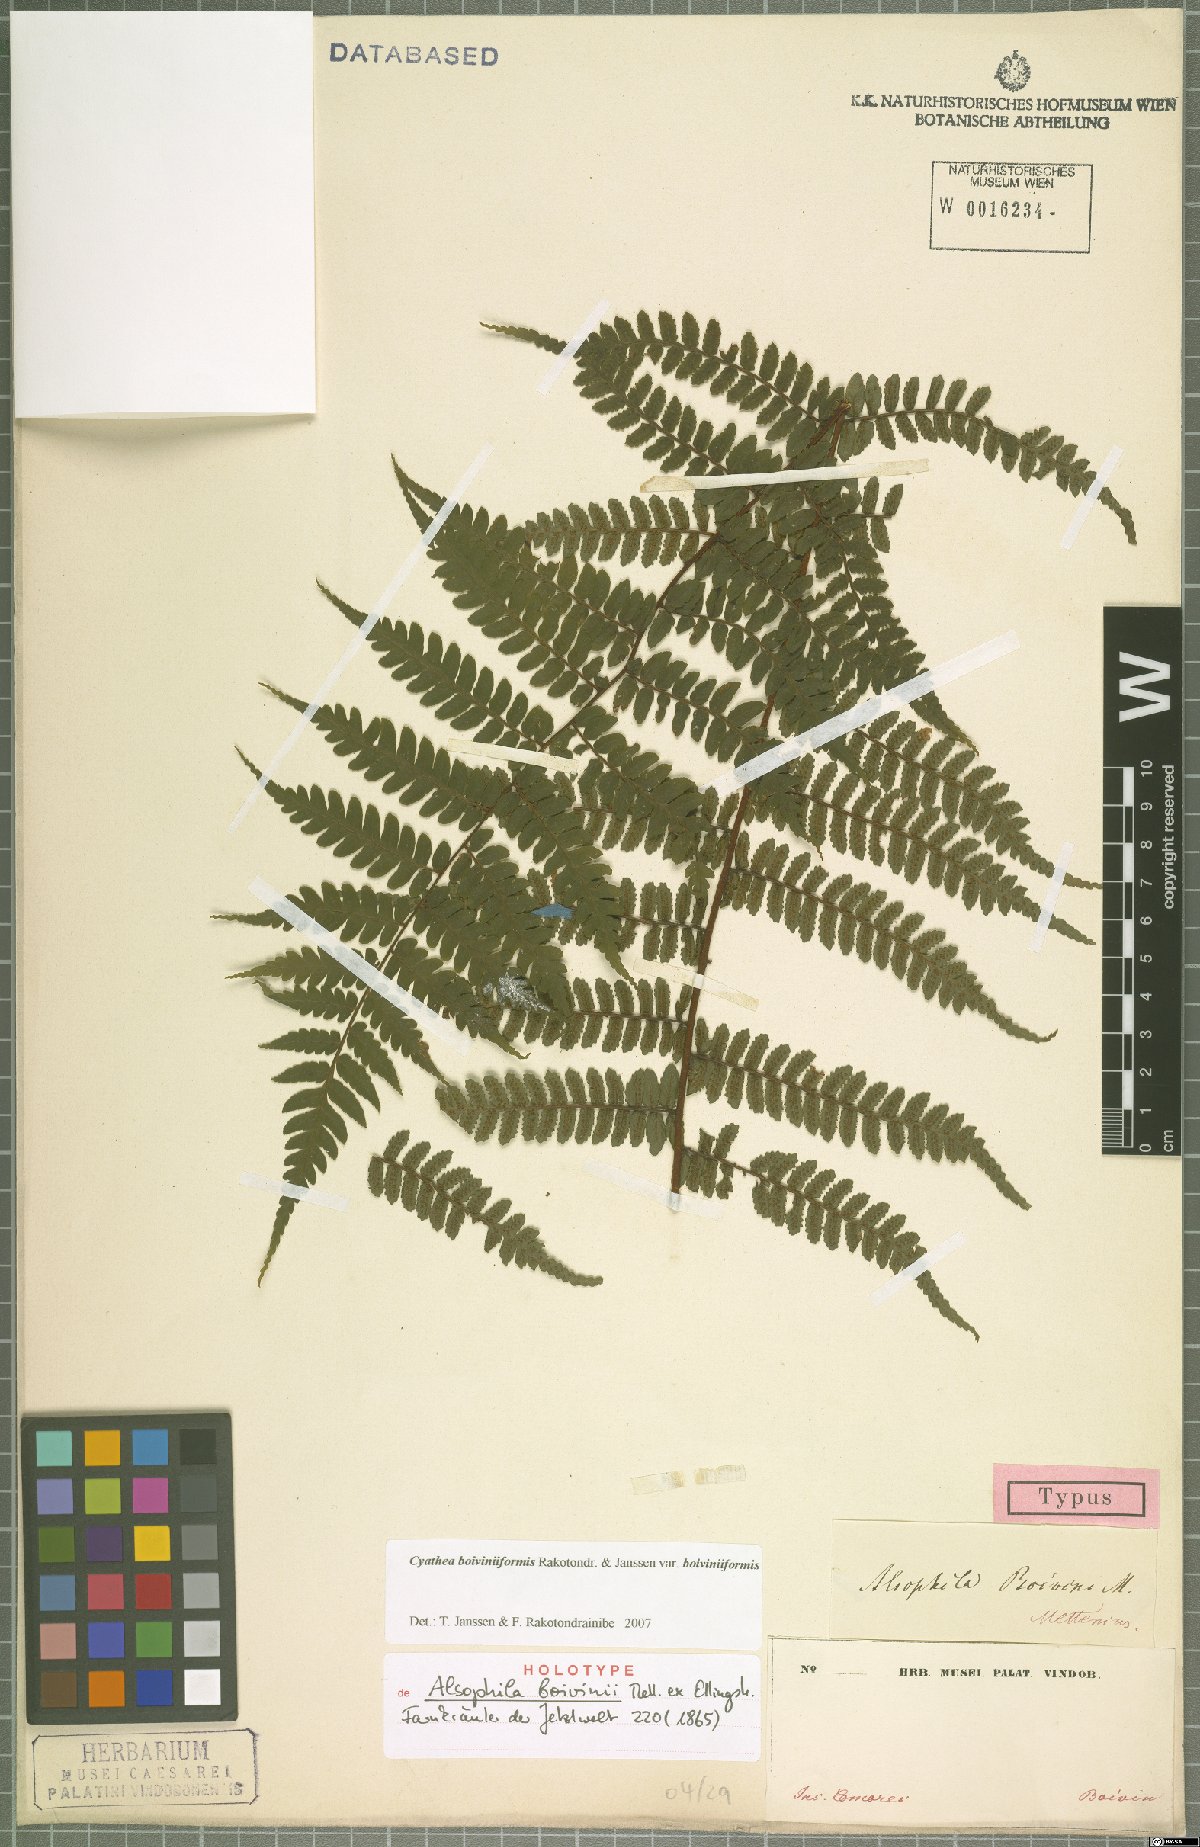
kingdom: Plantae
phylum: Tracheophyta
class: Polypodiopsida
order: Cyatheales
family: Cyatheaceae
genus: Gymnosphaera
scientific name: Gymnosphaera boivinii
